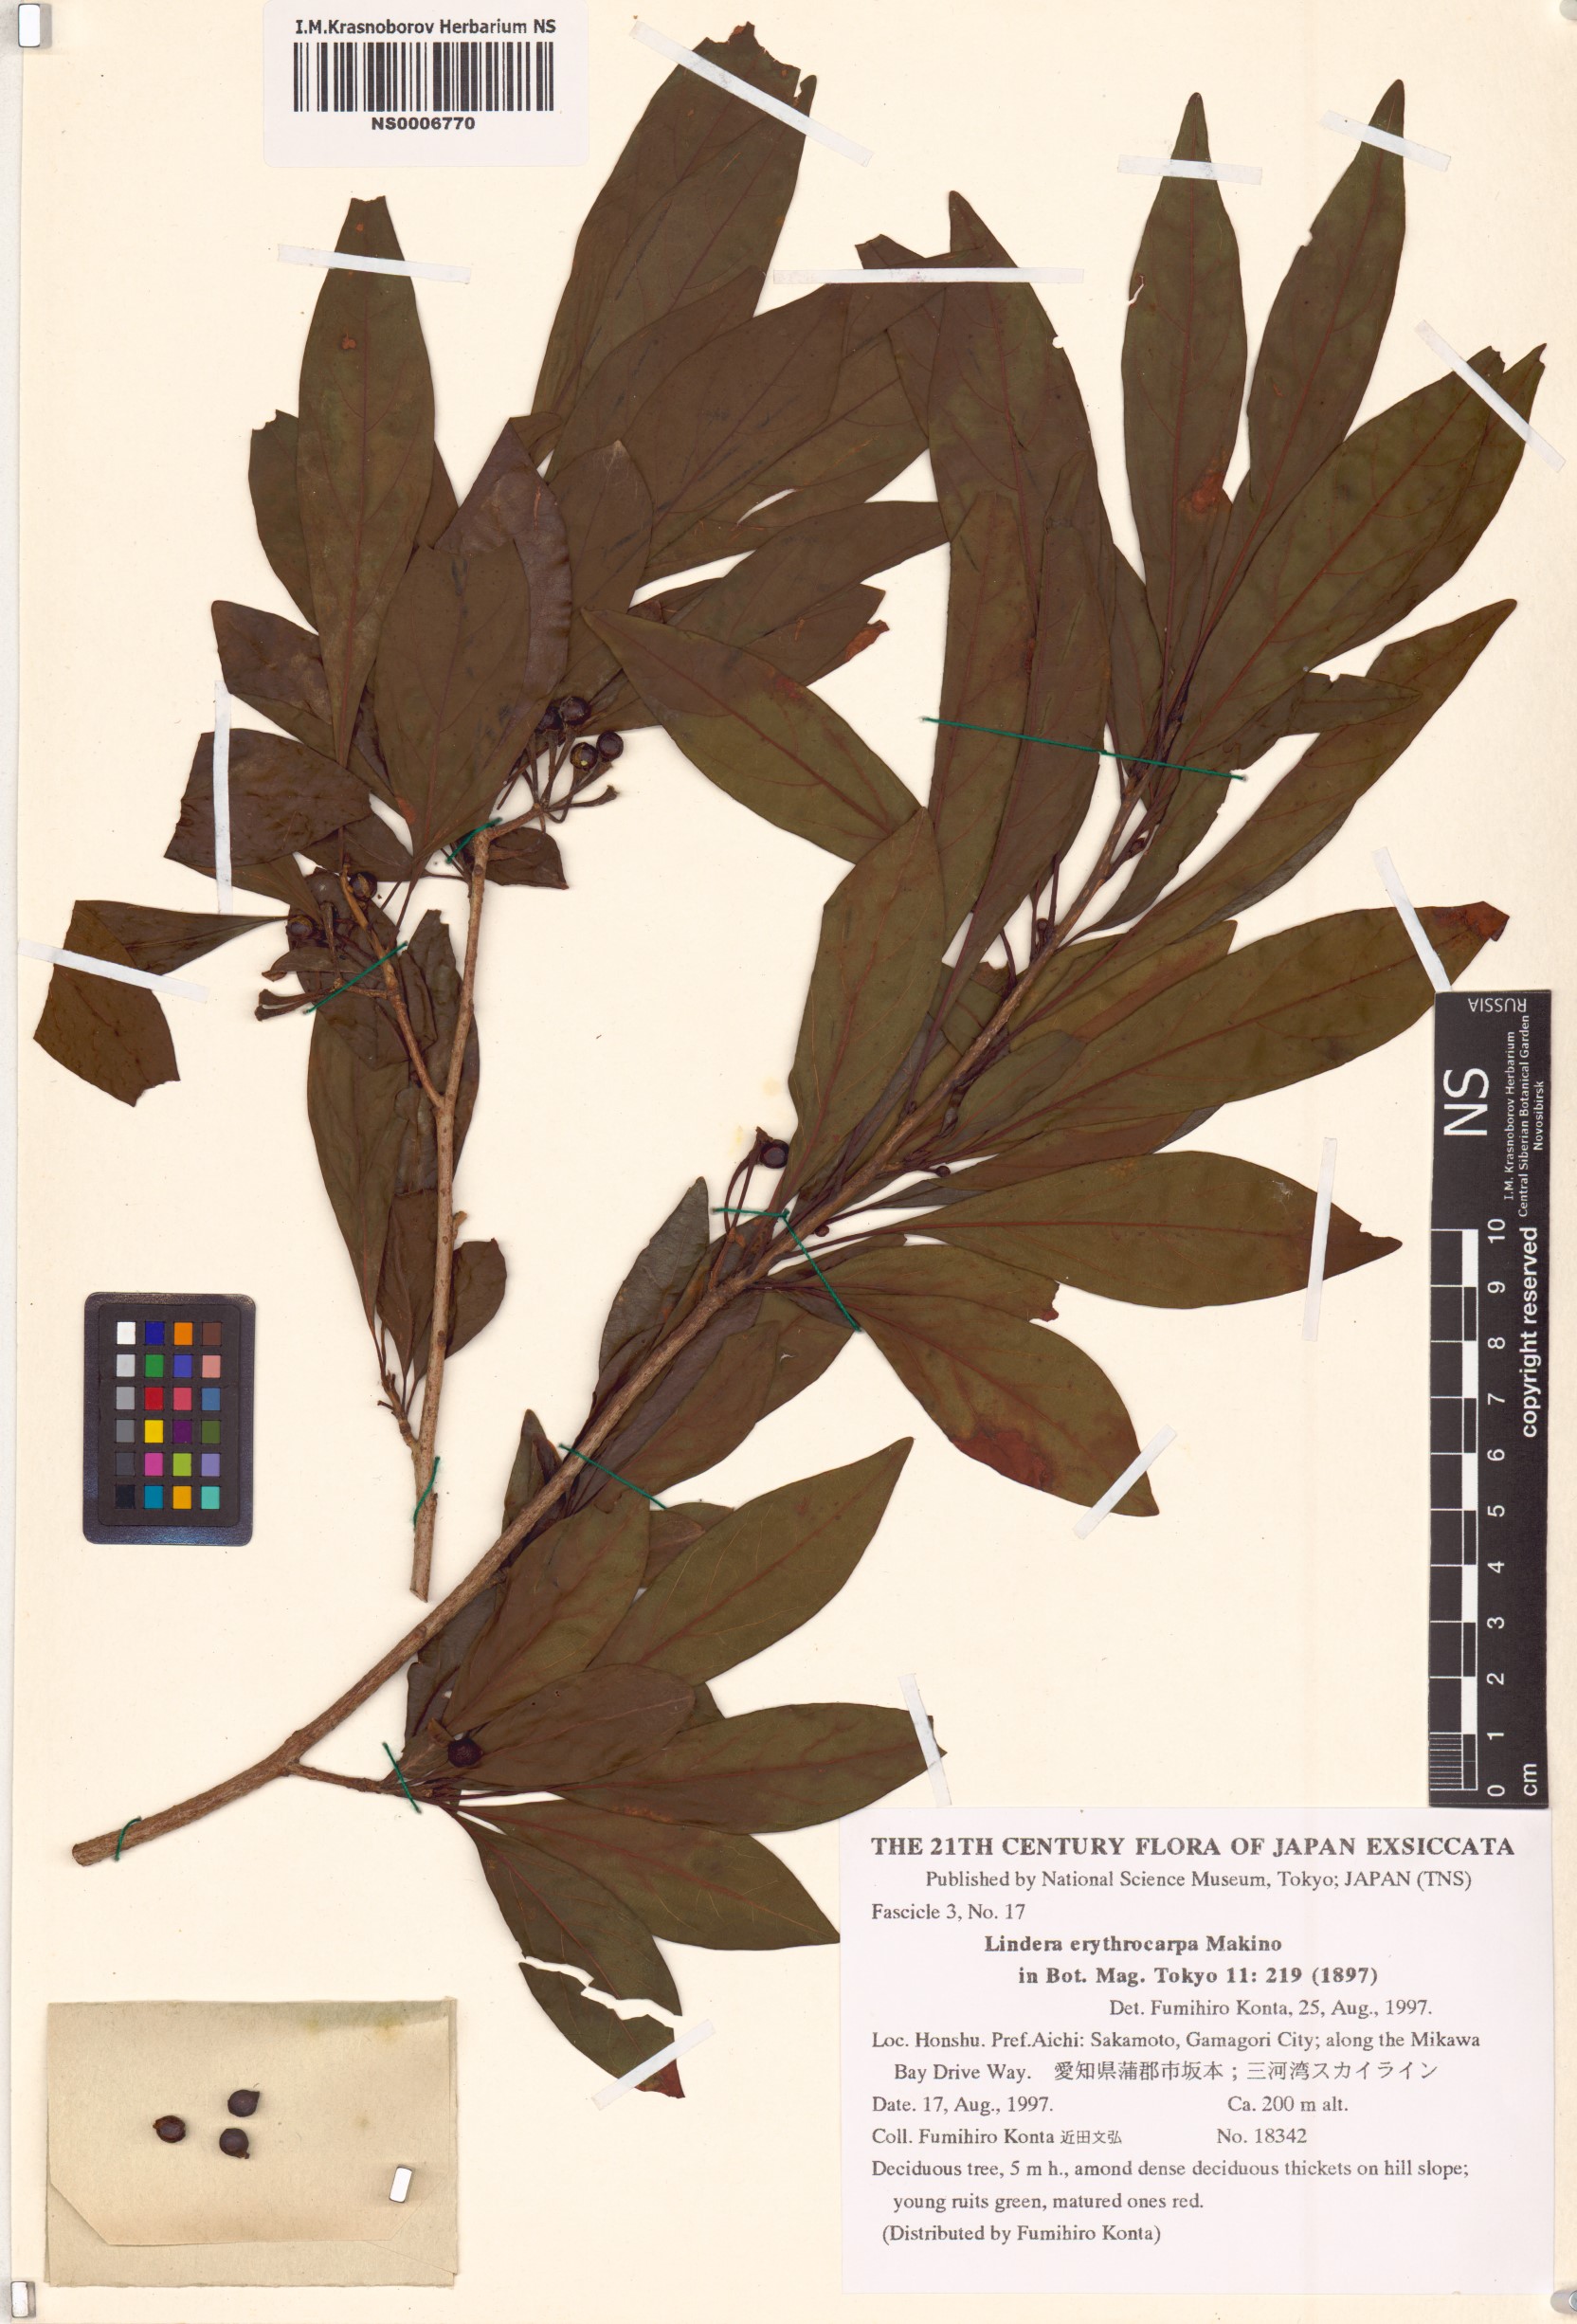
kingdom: Plantae
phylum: Tracheophyta
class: Magnoliopsida
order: Laurales
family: Lauraceae
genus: Lindera
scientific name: Lindera erythrocarpa
